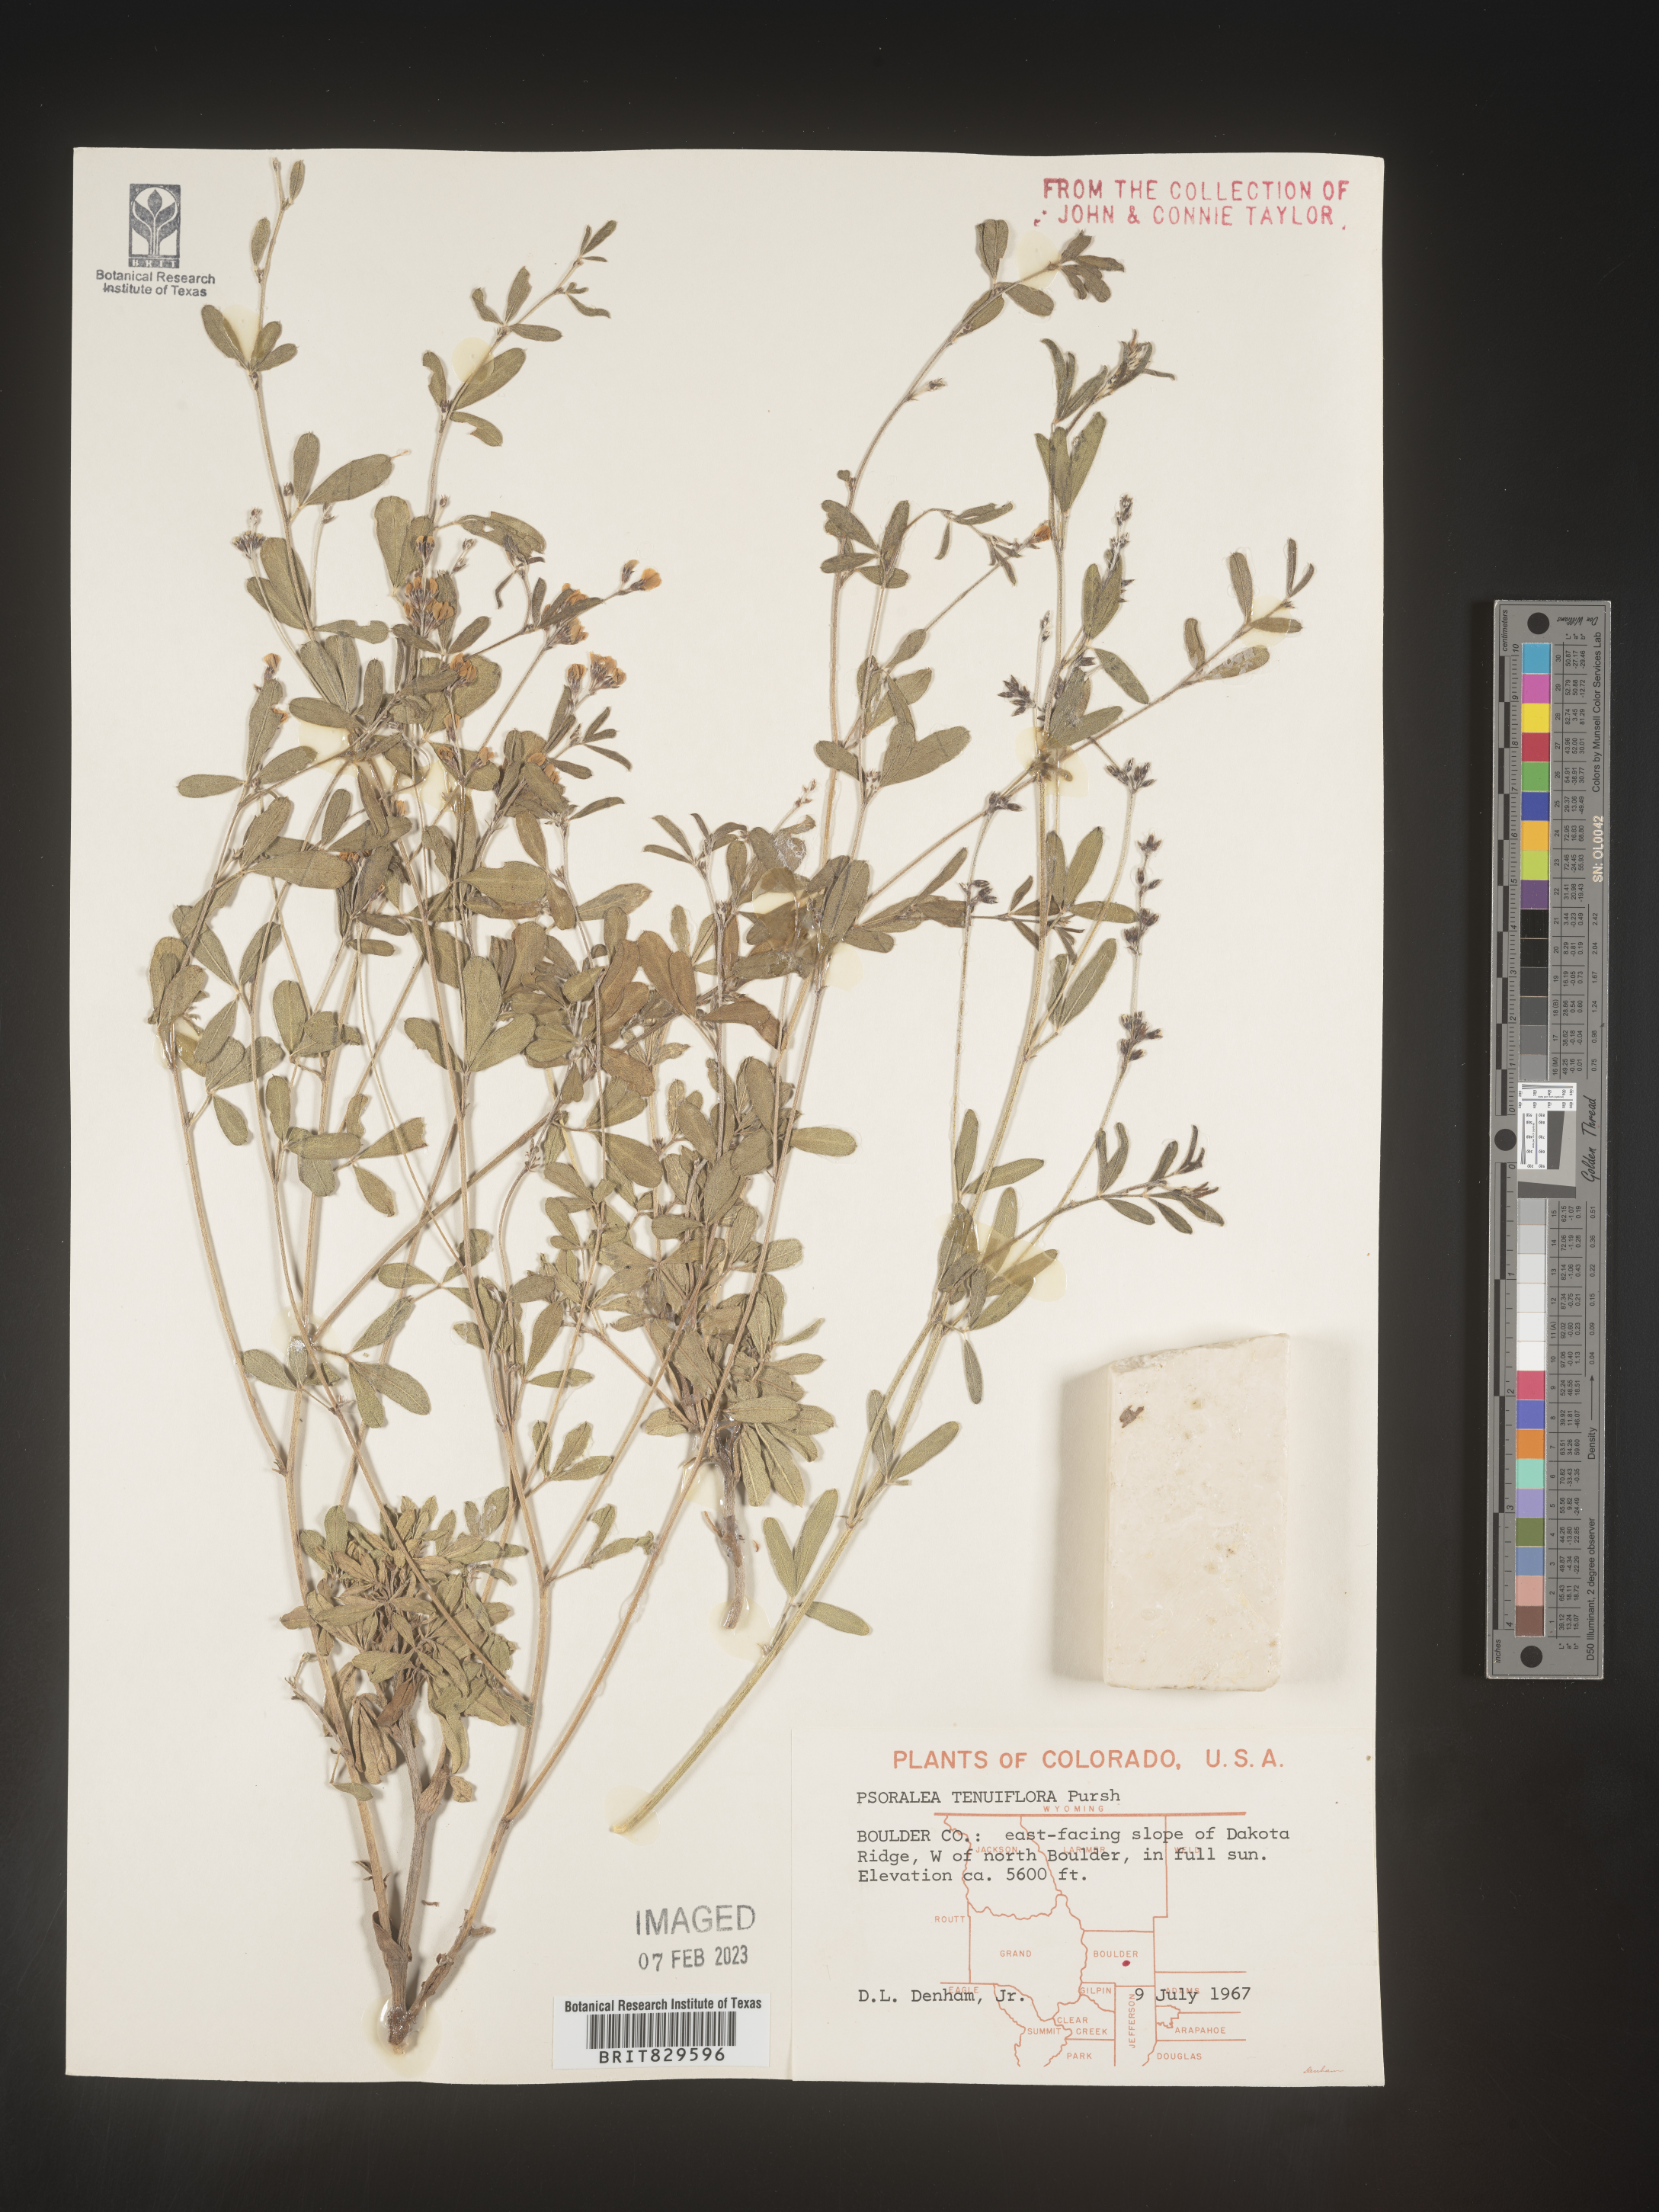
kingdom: Plantae
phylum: Tracheophyta
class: Magnoliopsida
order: Fabales
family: Fabaceae
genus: Pediomelum
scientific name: Pediomelum tenuiflorum
